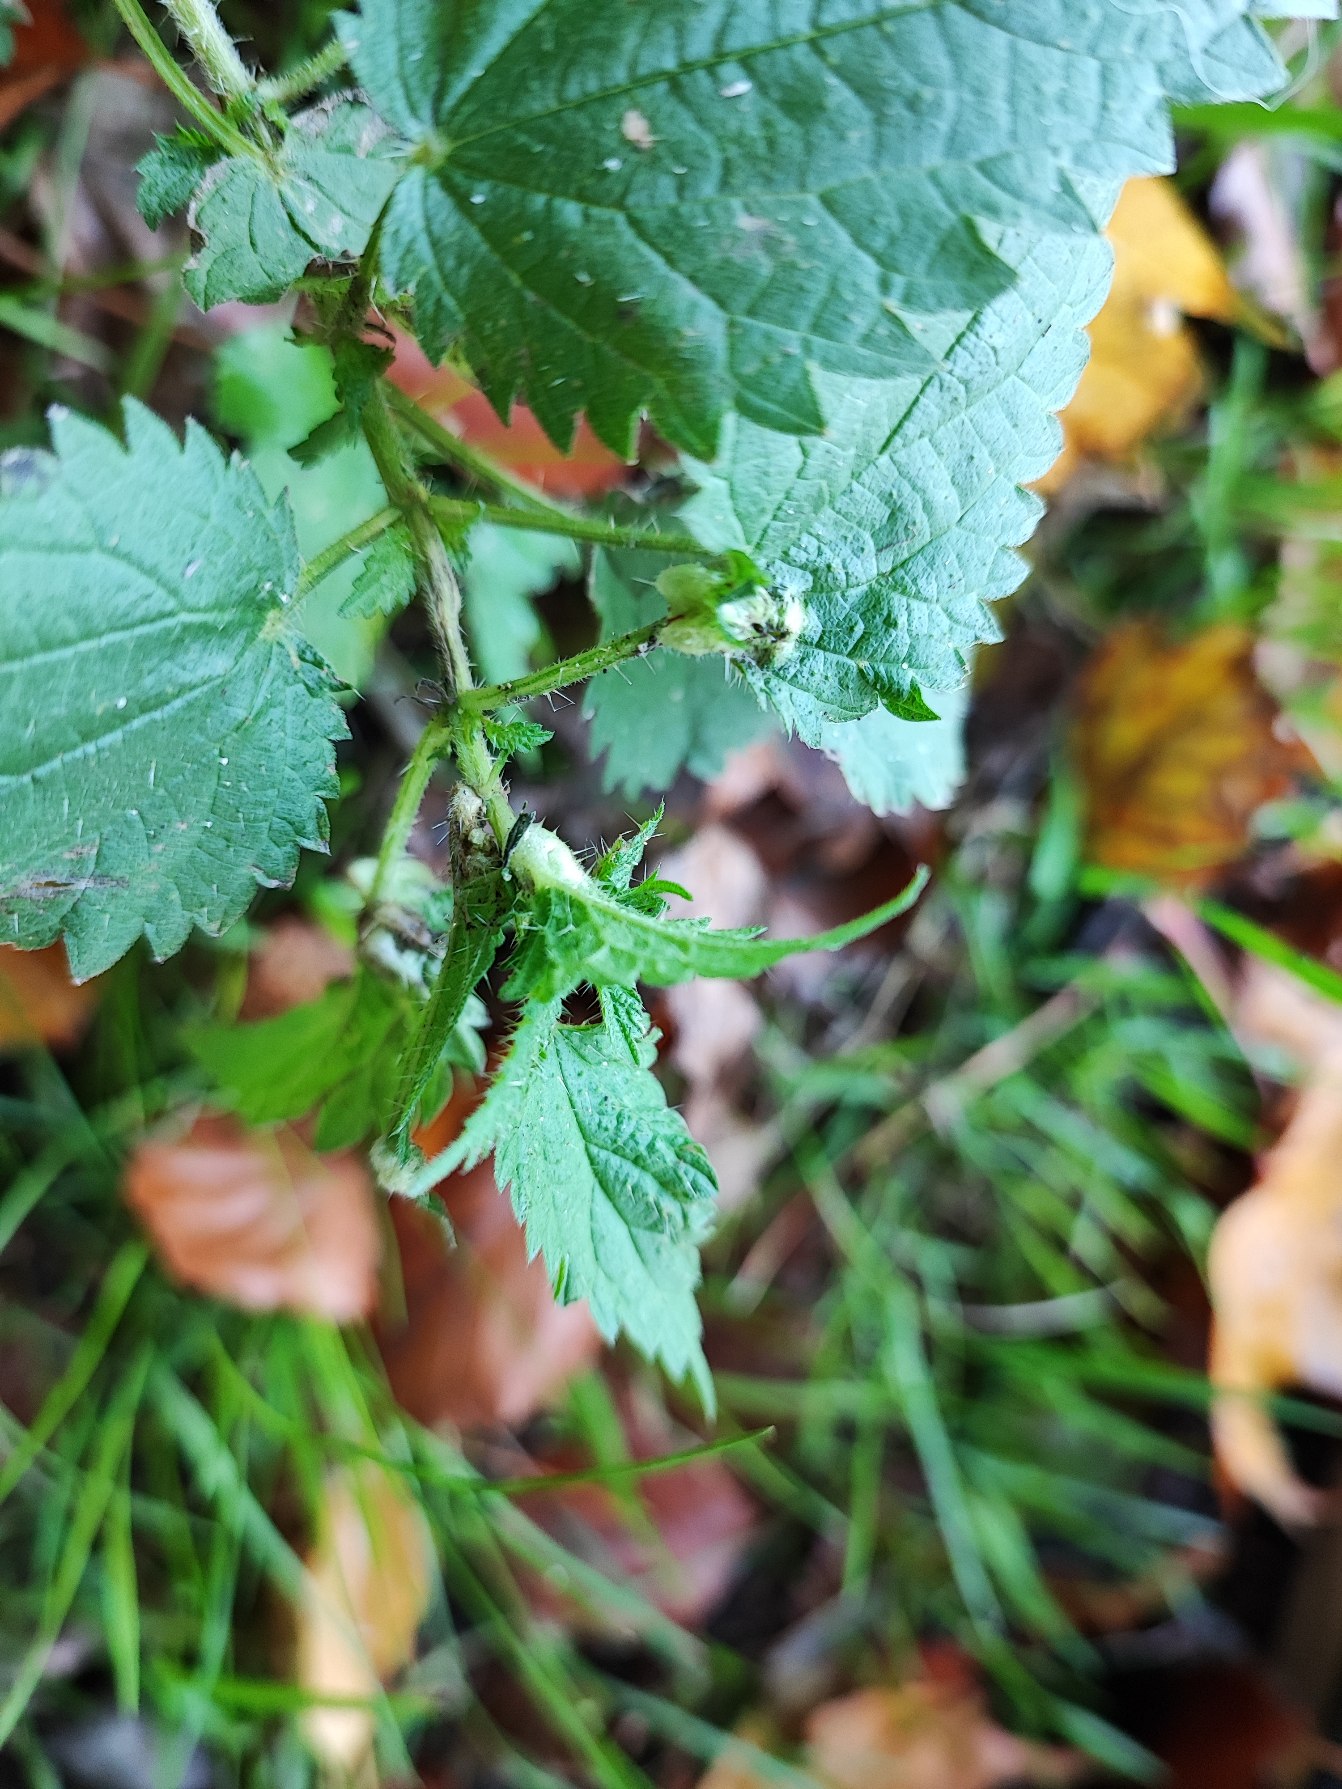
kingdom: Animalia
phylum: Arthropoda
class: Insecta
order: Diptera
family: Cecidomyiidae
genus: Dasineura
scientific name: Dasineura urticae
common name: Nældepunggalmyg
